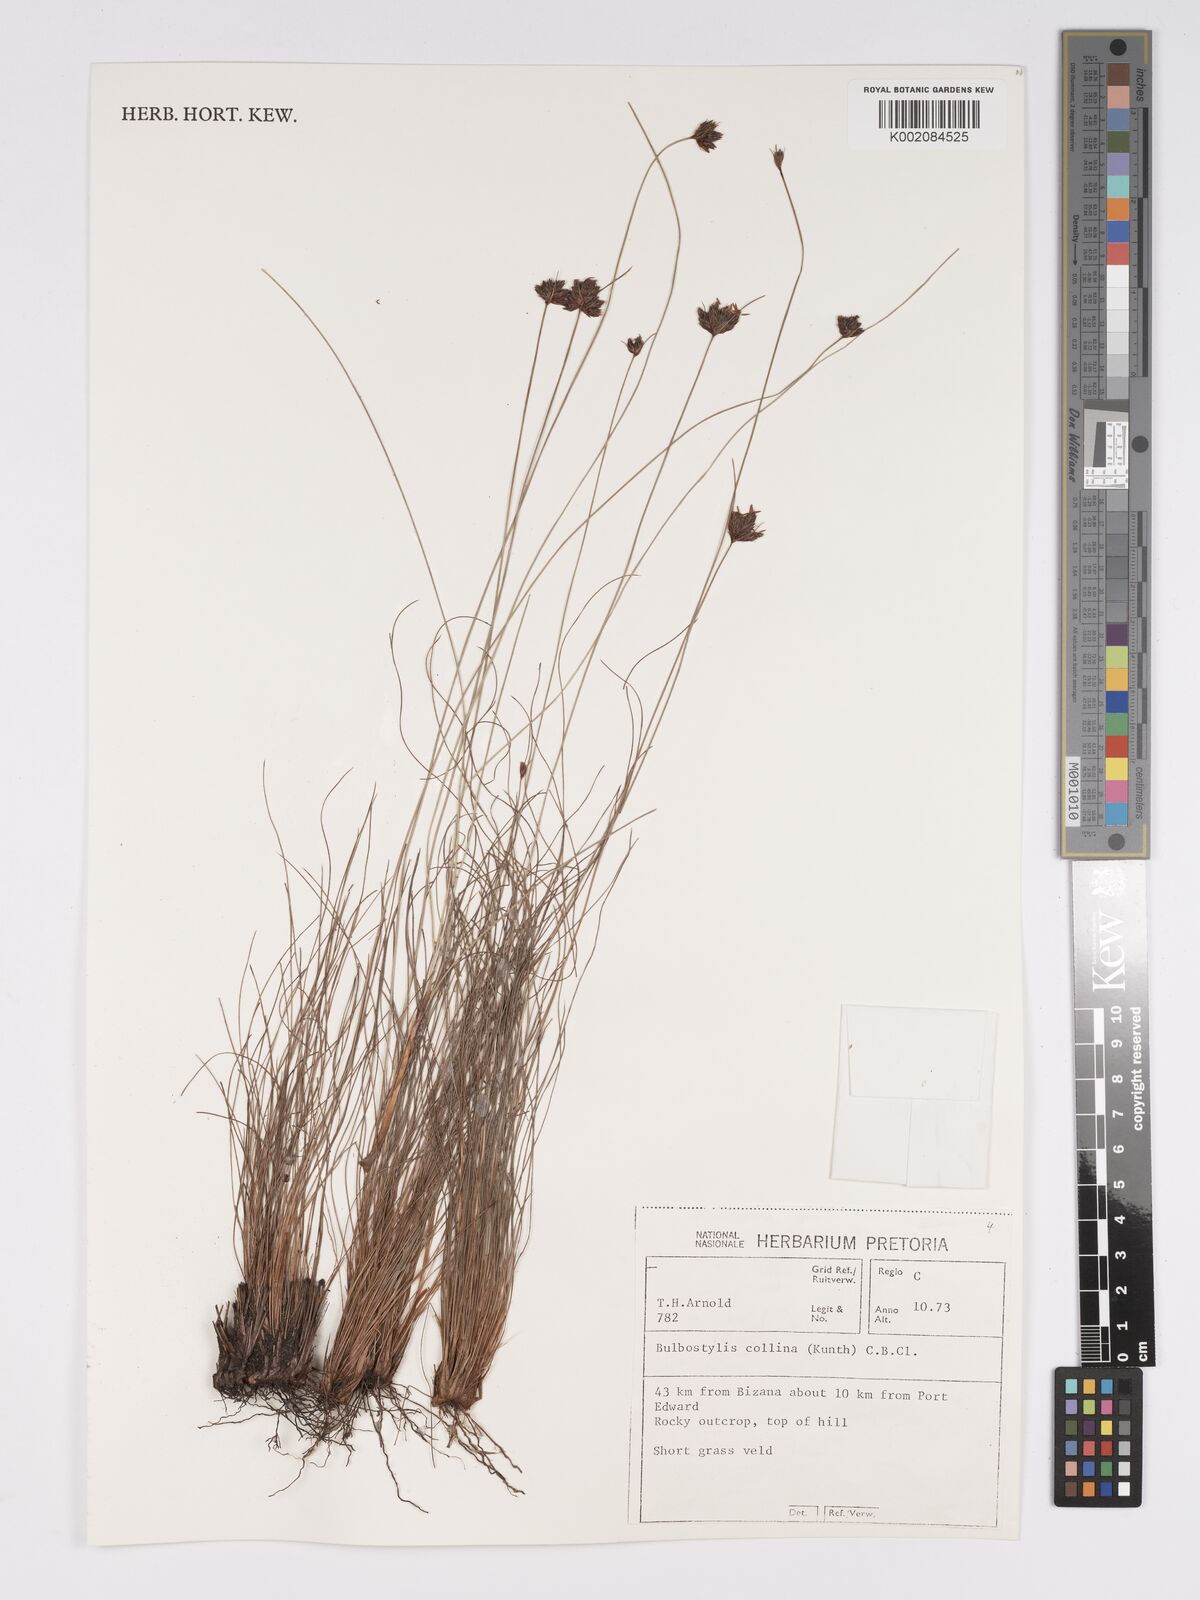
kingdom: Plantae
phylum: Tracheophyta
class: Liliopsida
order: Poales
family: Cyperaceae
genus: Bulbostylis
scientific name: Bulbostylis contexta
